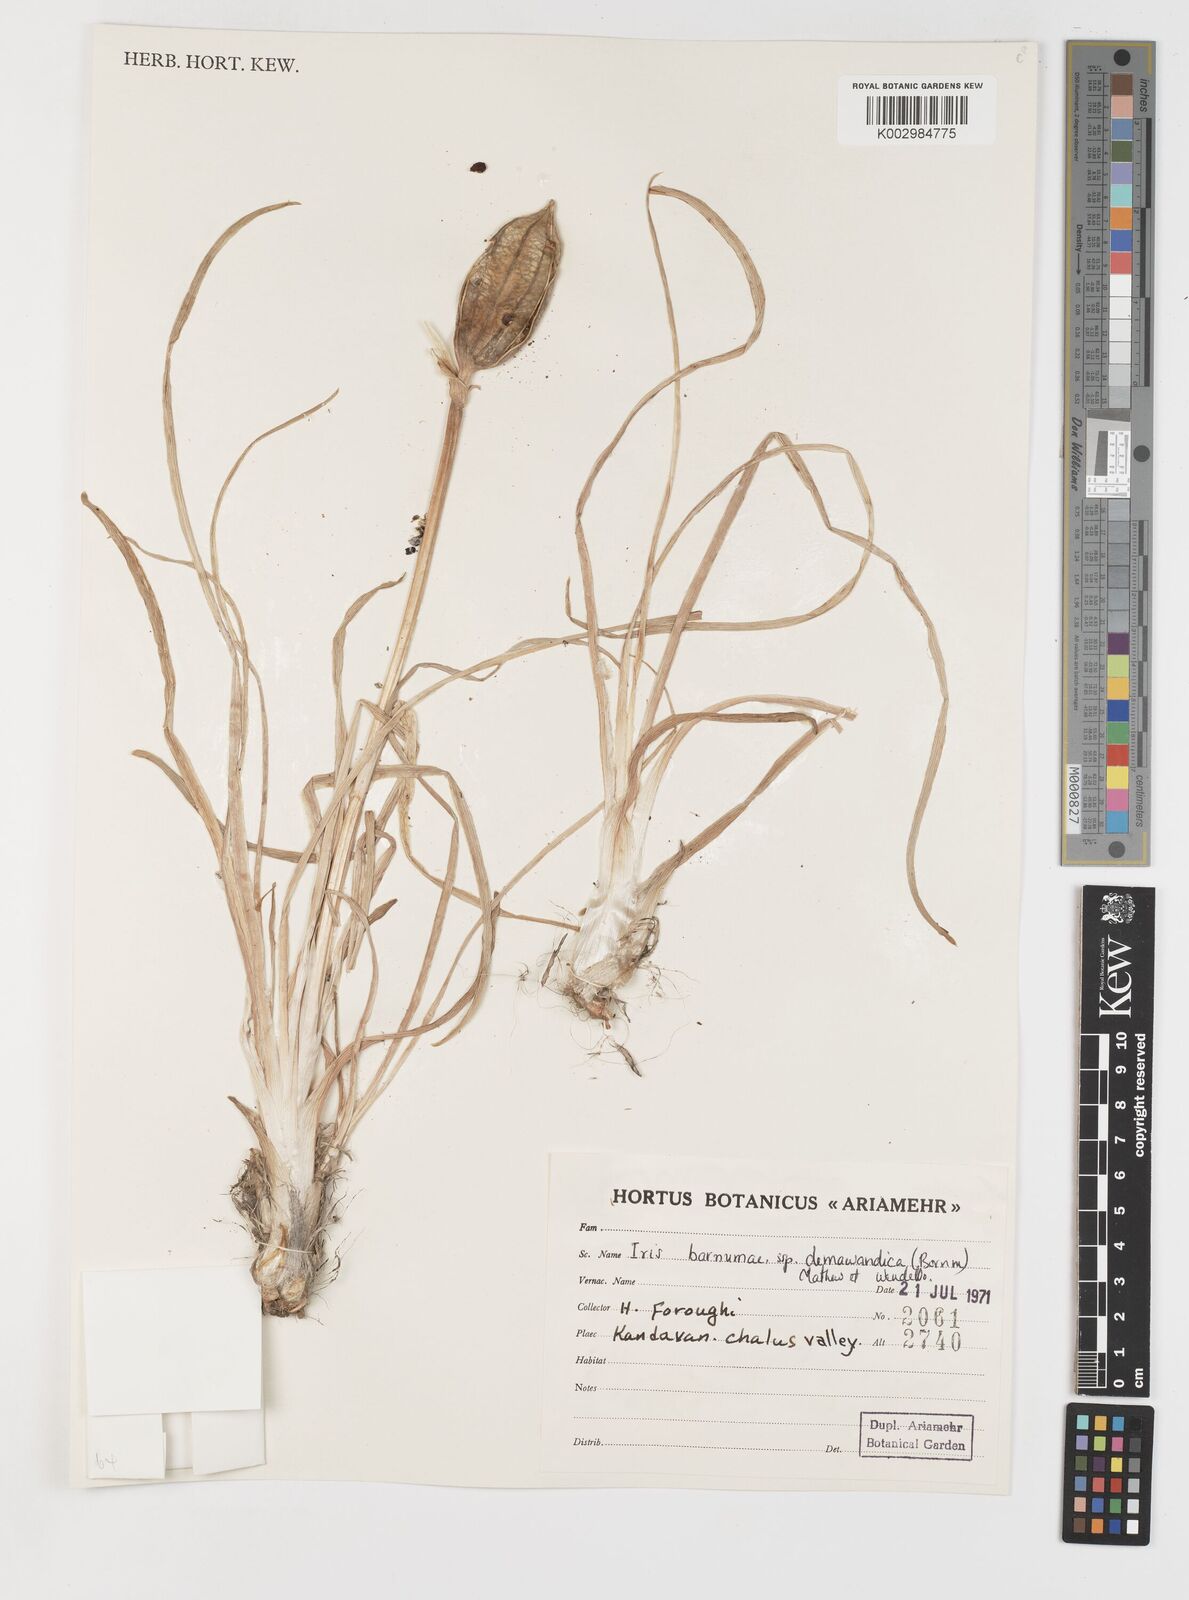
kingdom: Plantae
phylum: Tracheophyta
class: Liliopsida
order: Asparagales
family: Iridaceae
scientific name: Iridaceae
